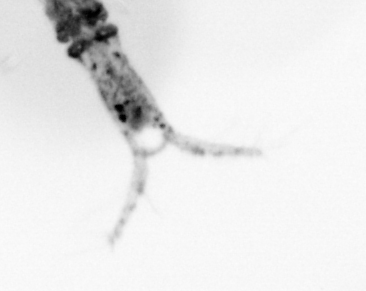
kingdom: Animalia
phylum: Arthropoda
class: Copepoda
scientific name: Copepoda
